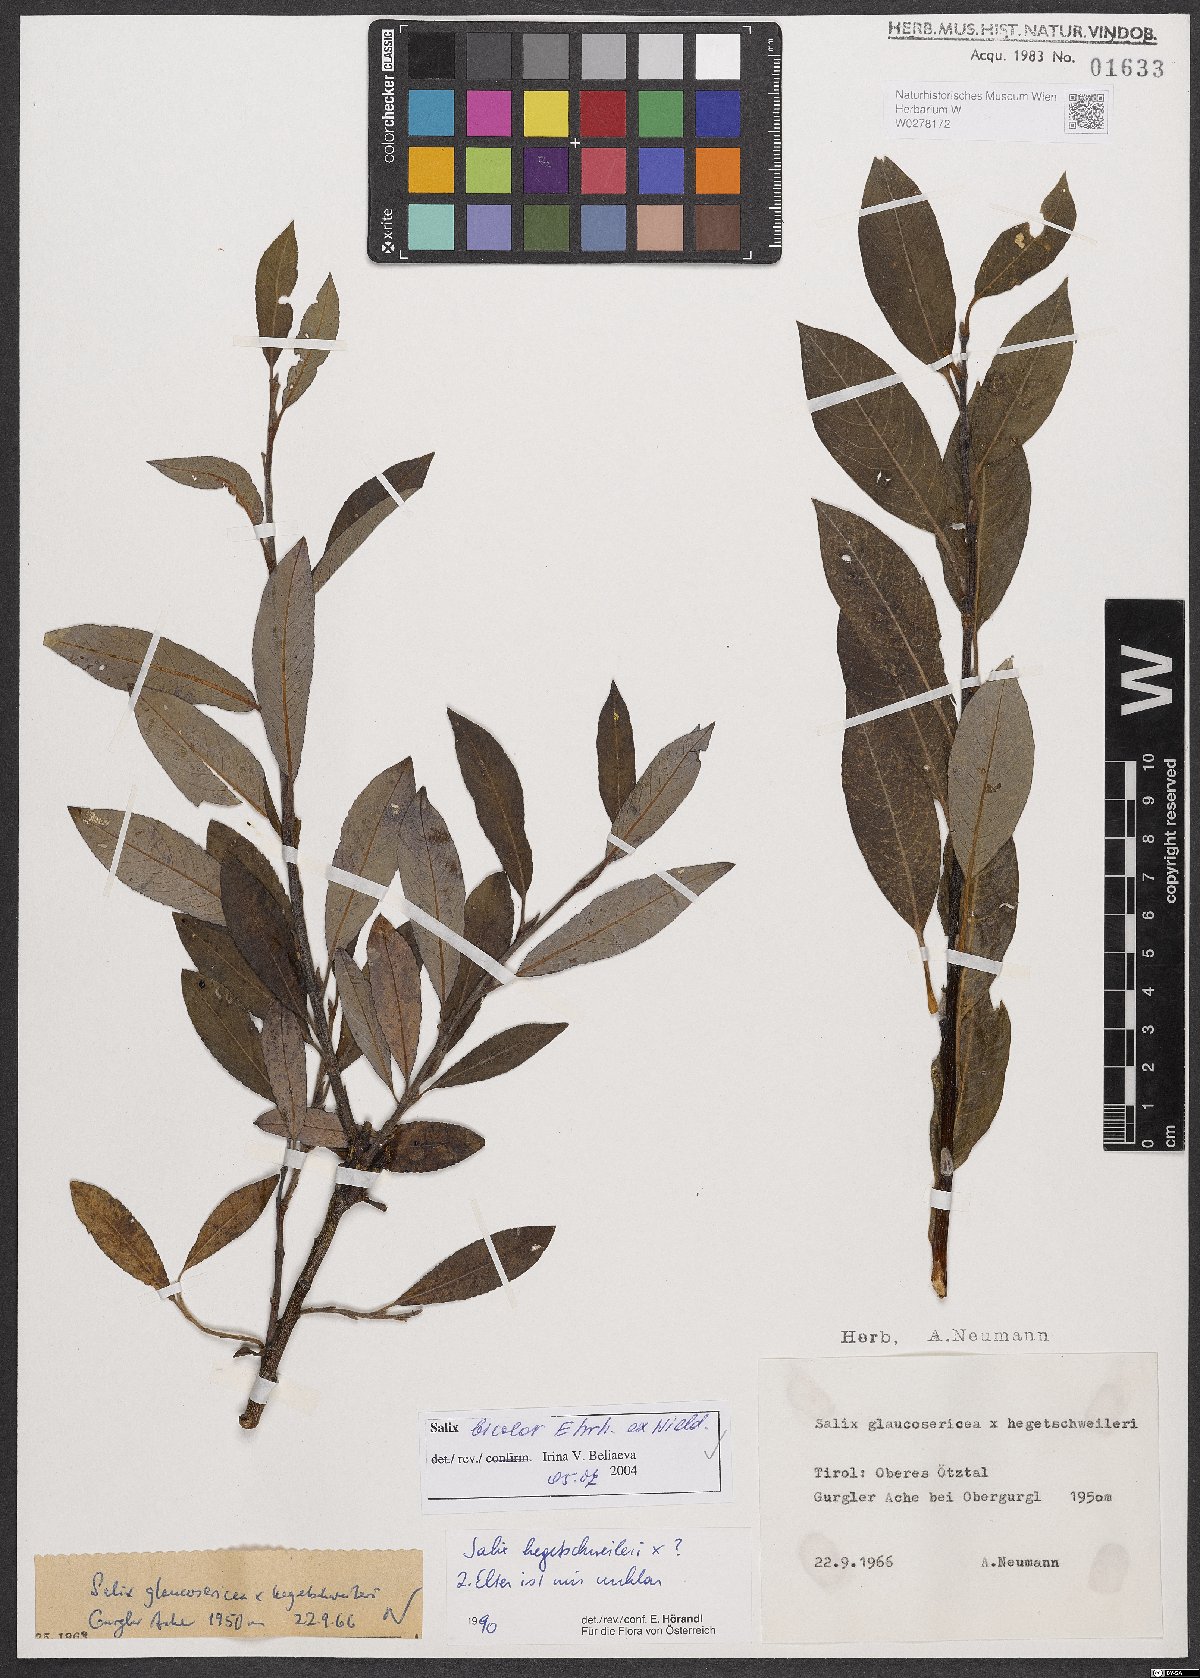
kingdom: Plantae
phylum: Tracheophyta
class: Magnoliopsida
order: Malpighiales
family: Salicaceae
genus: Salix
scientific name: Salix bicolor
